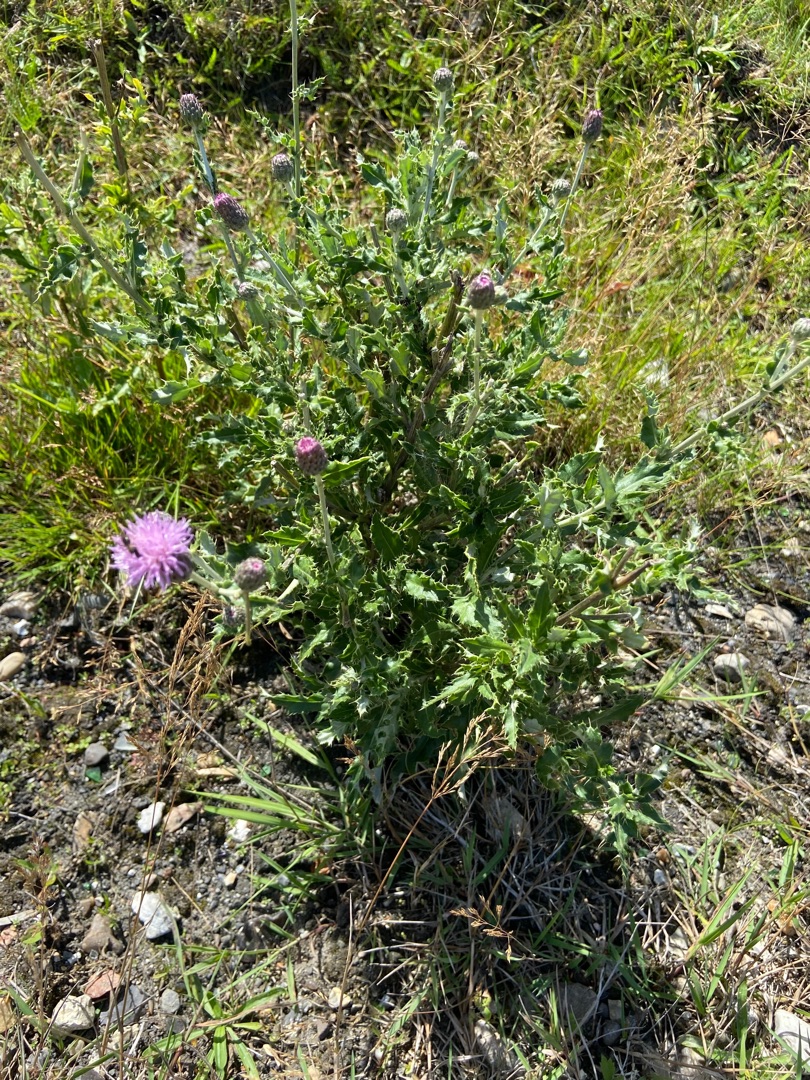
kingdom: Plantae
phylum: Tracheophyta
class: Magnoliopsida
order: Asterales
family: Asteraceae
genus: Cirsium
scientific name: Cirsium arvense
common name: Ager-tidsel
